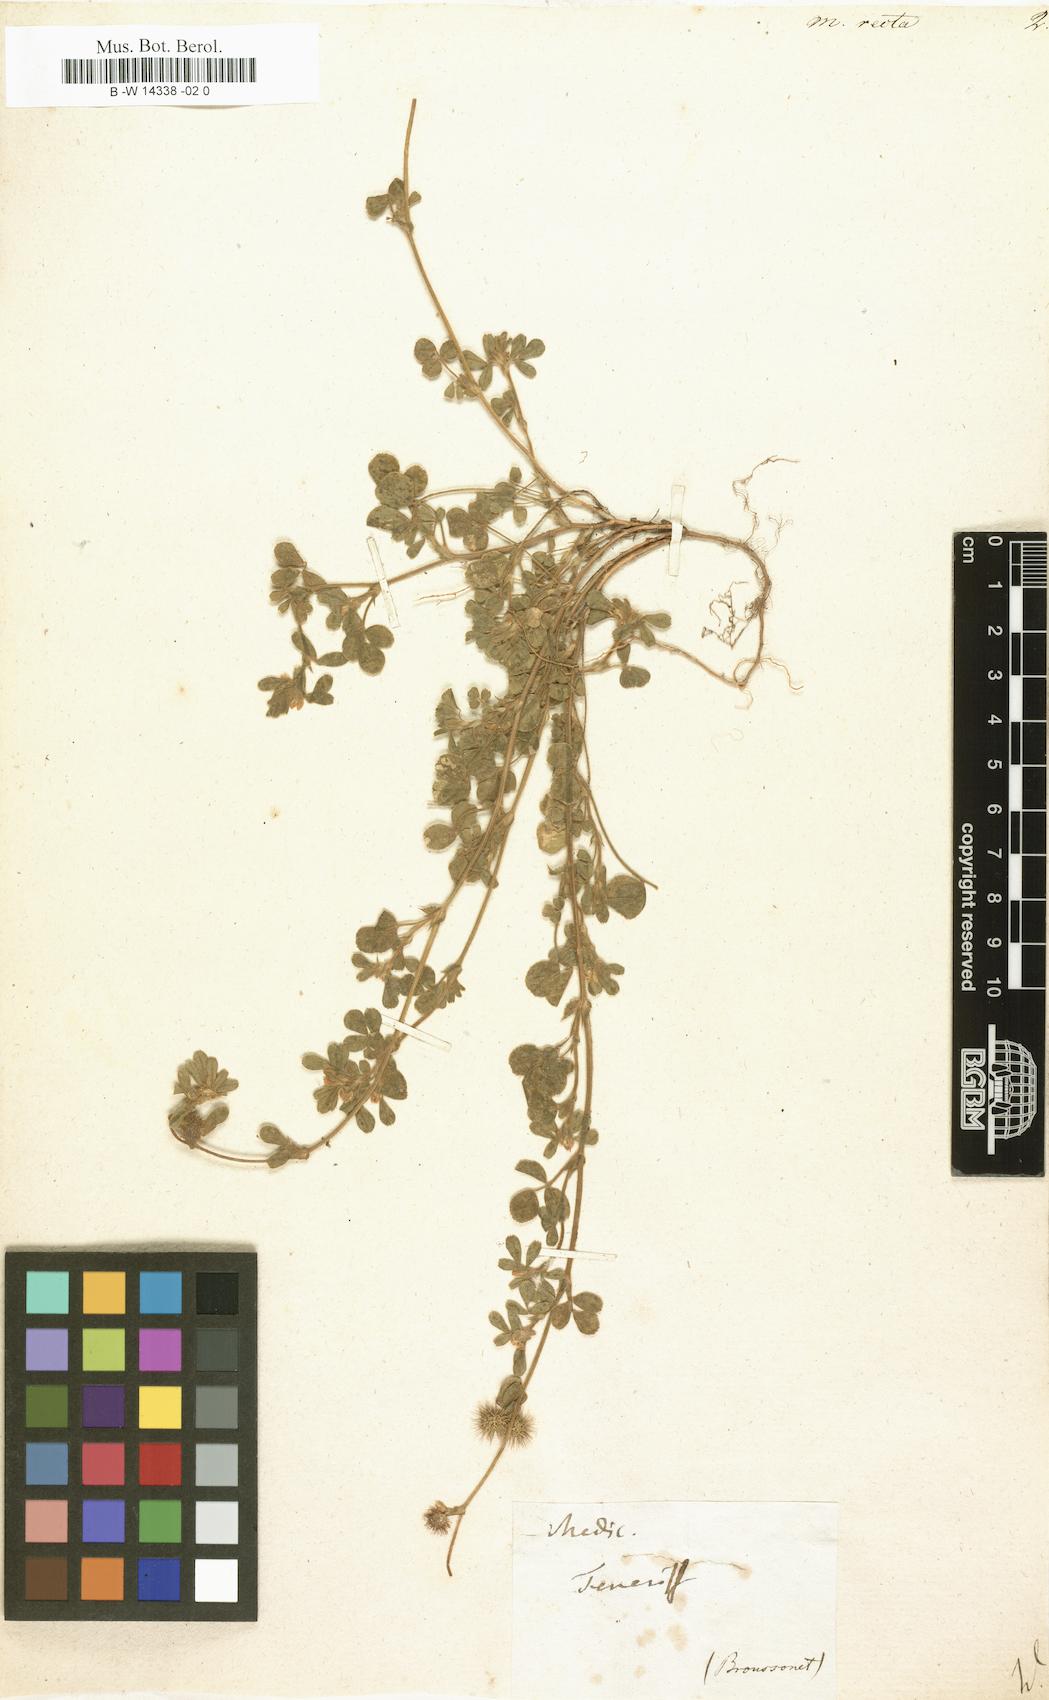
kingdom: Plantae
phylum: Tracheophyta
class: Magnoliopsida
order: Fabales
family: Fabaceae
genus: Medicago
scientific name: Medicago recta
